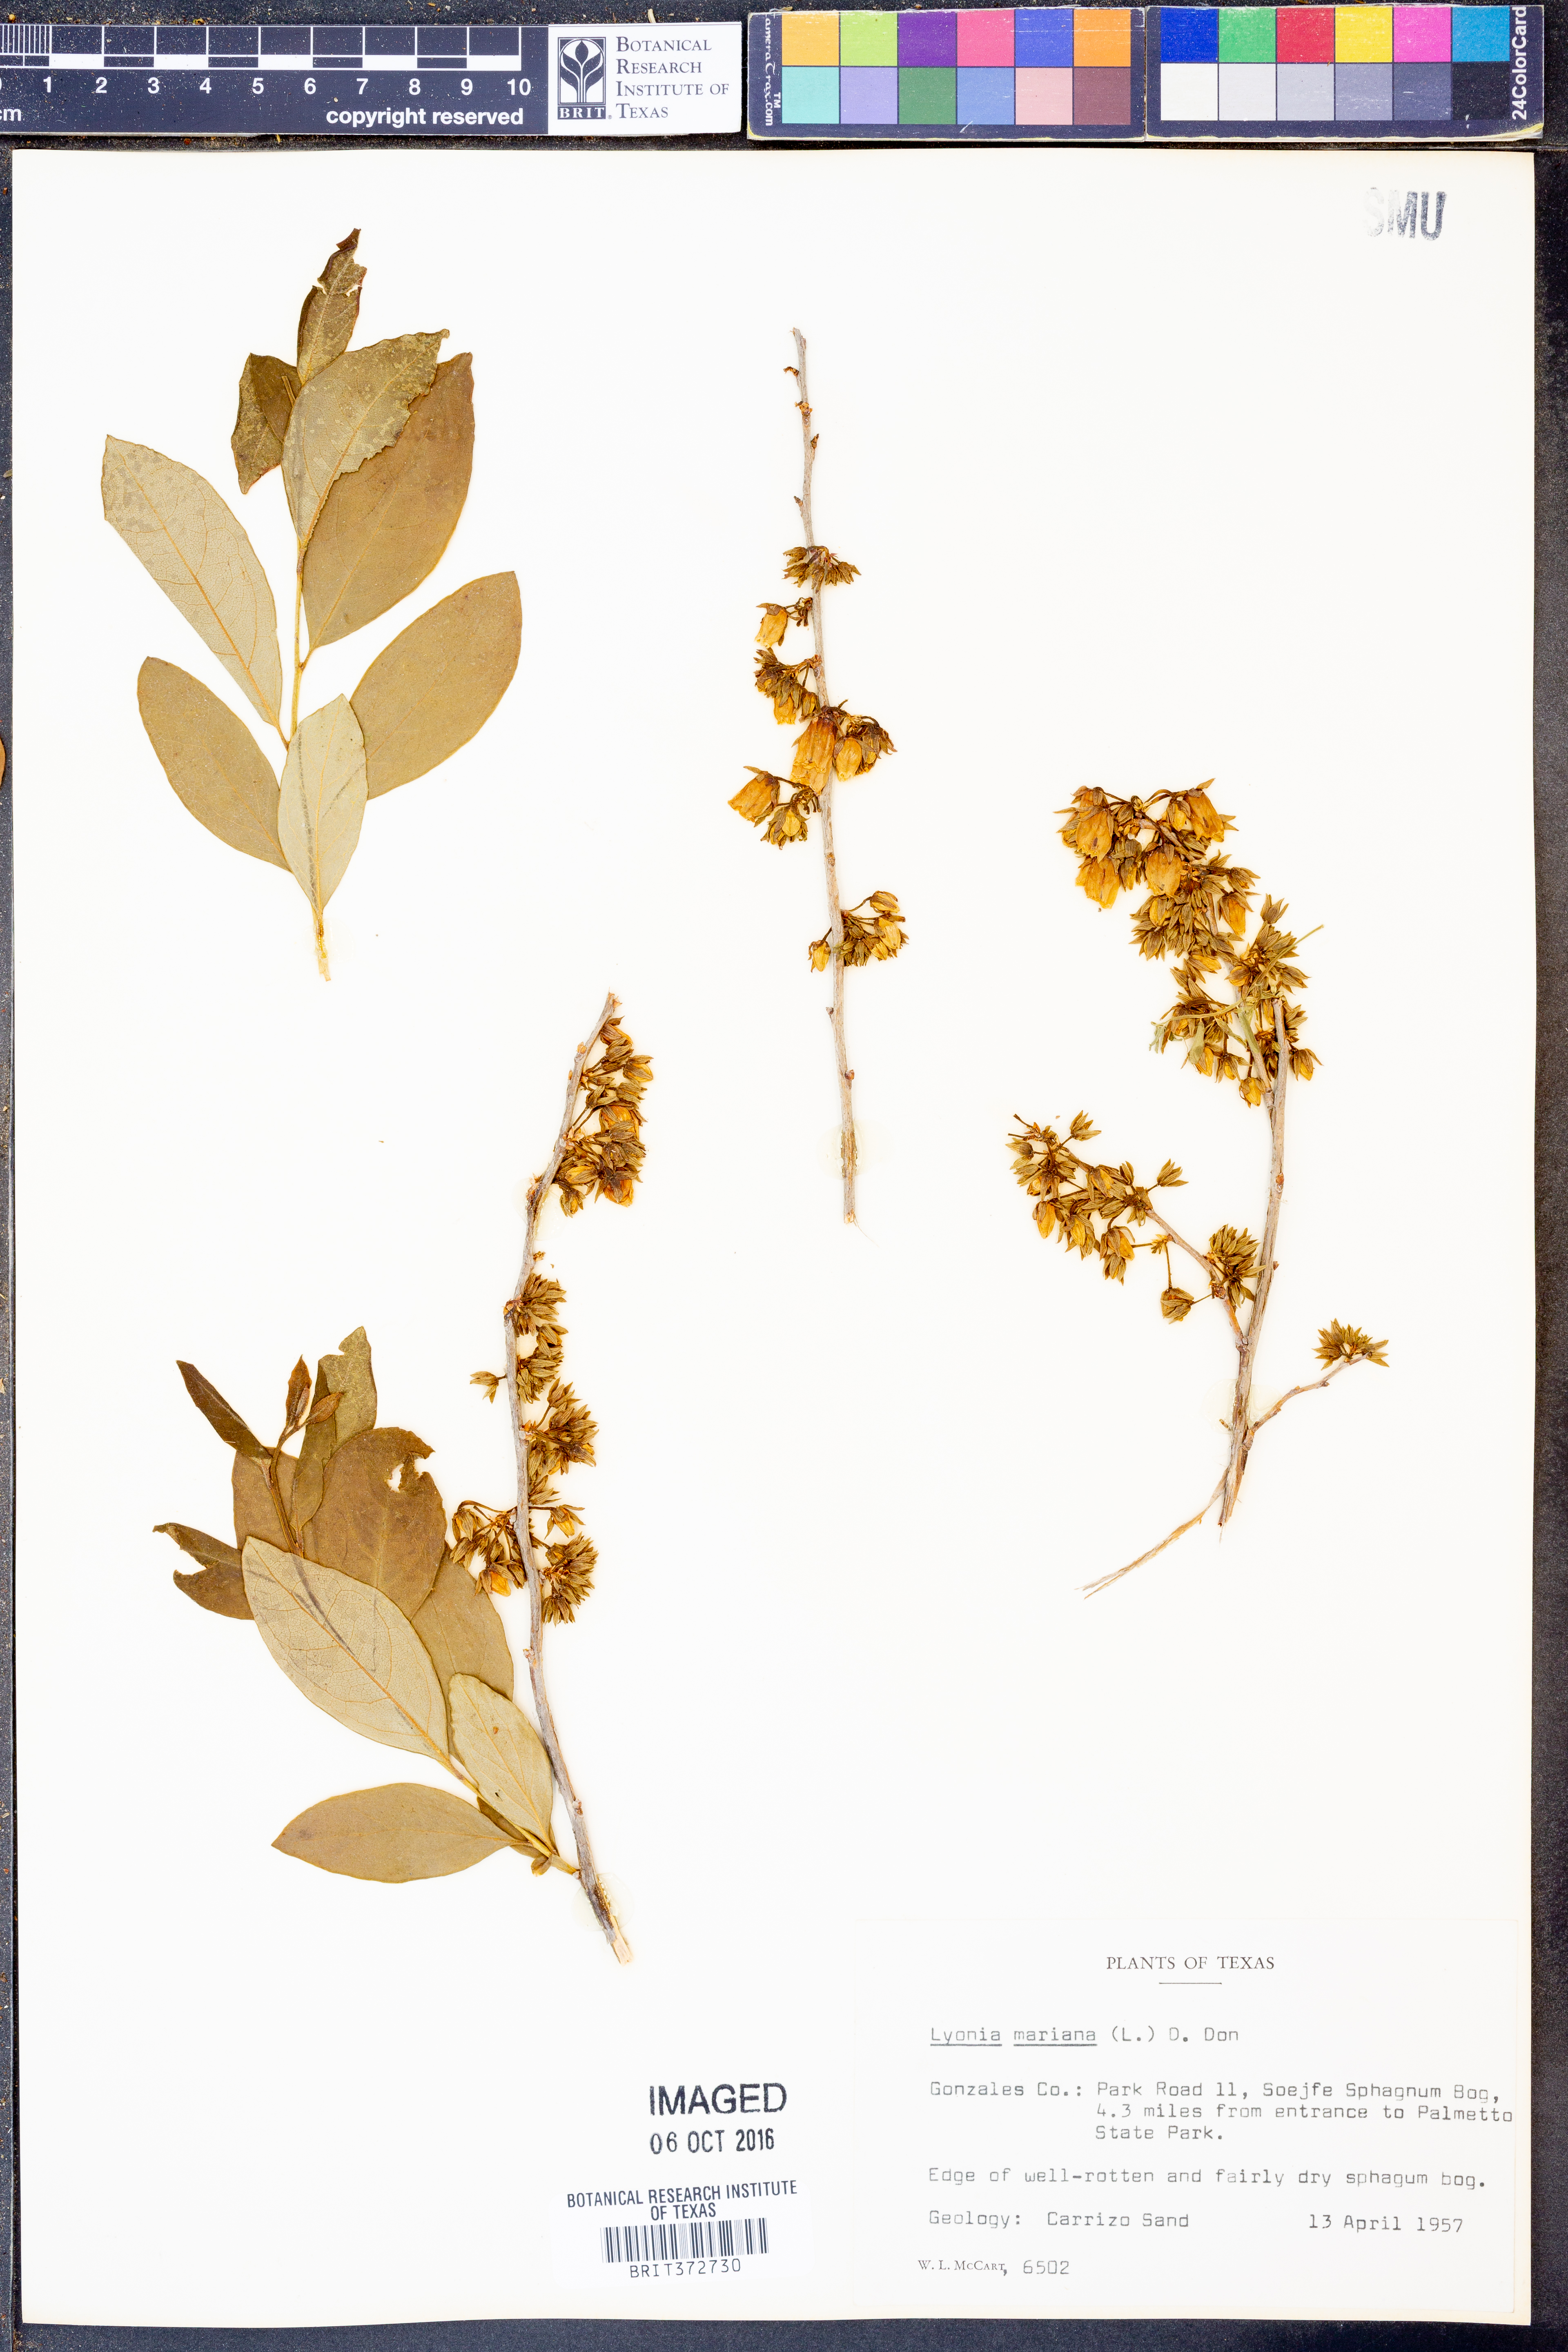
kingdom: Plantae
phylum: Tracheophyta
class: Magnoliopsida
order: Ericales
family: Ericaceae
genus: Lyonia
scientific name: Lyonia mariana
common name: Staggerbush
